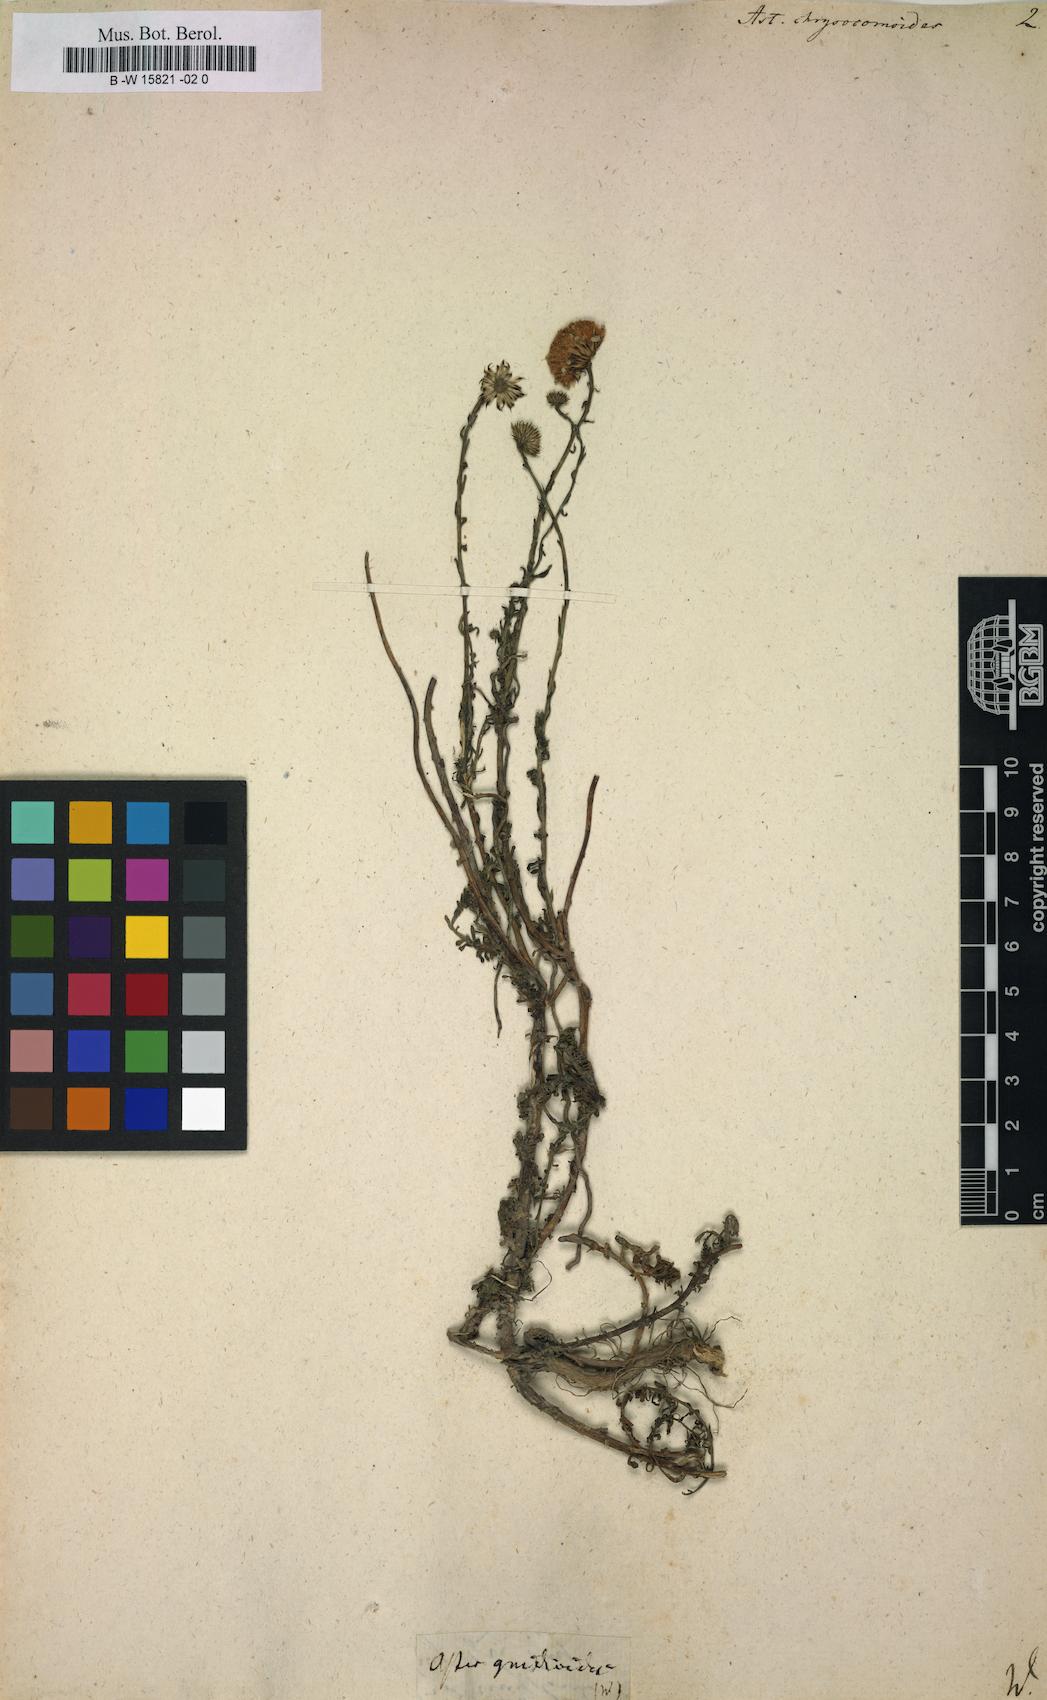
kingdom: Plantae
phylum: Tracheophyta
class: Magnoliopsida
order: Asterales
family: Asteraceae
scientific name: Asteraceae
